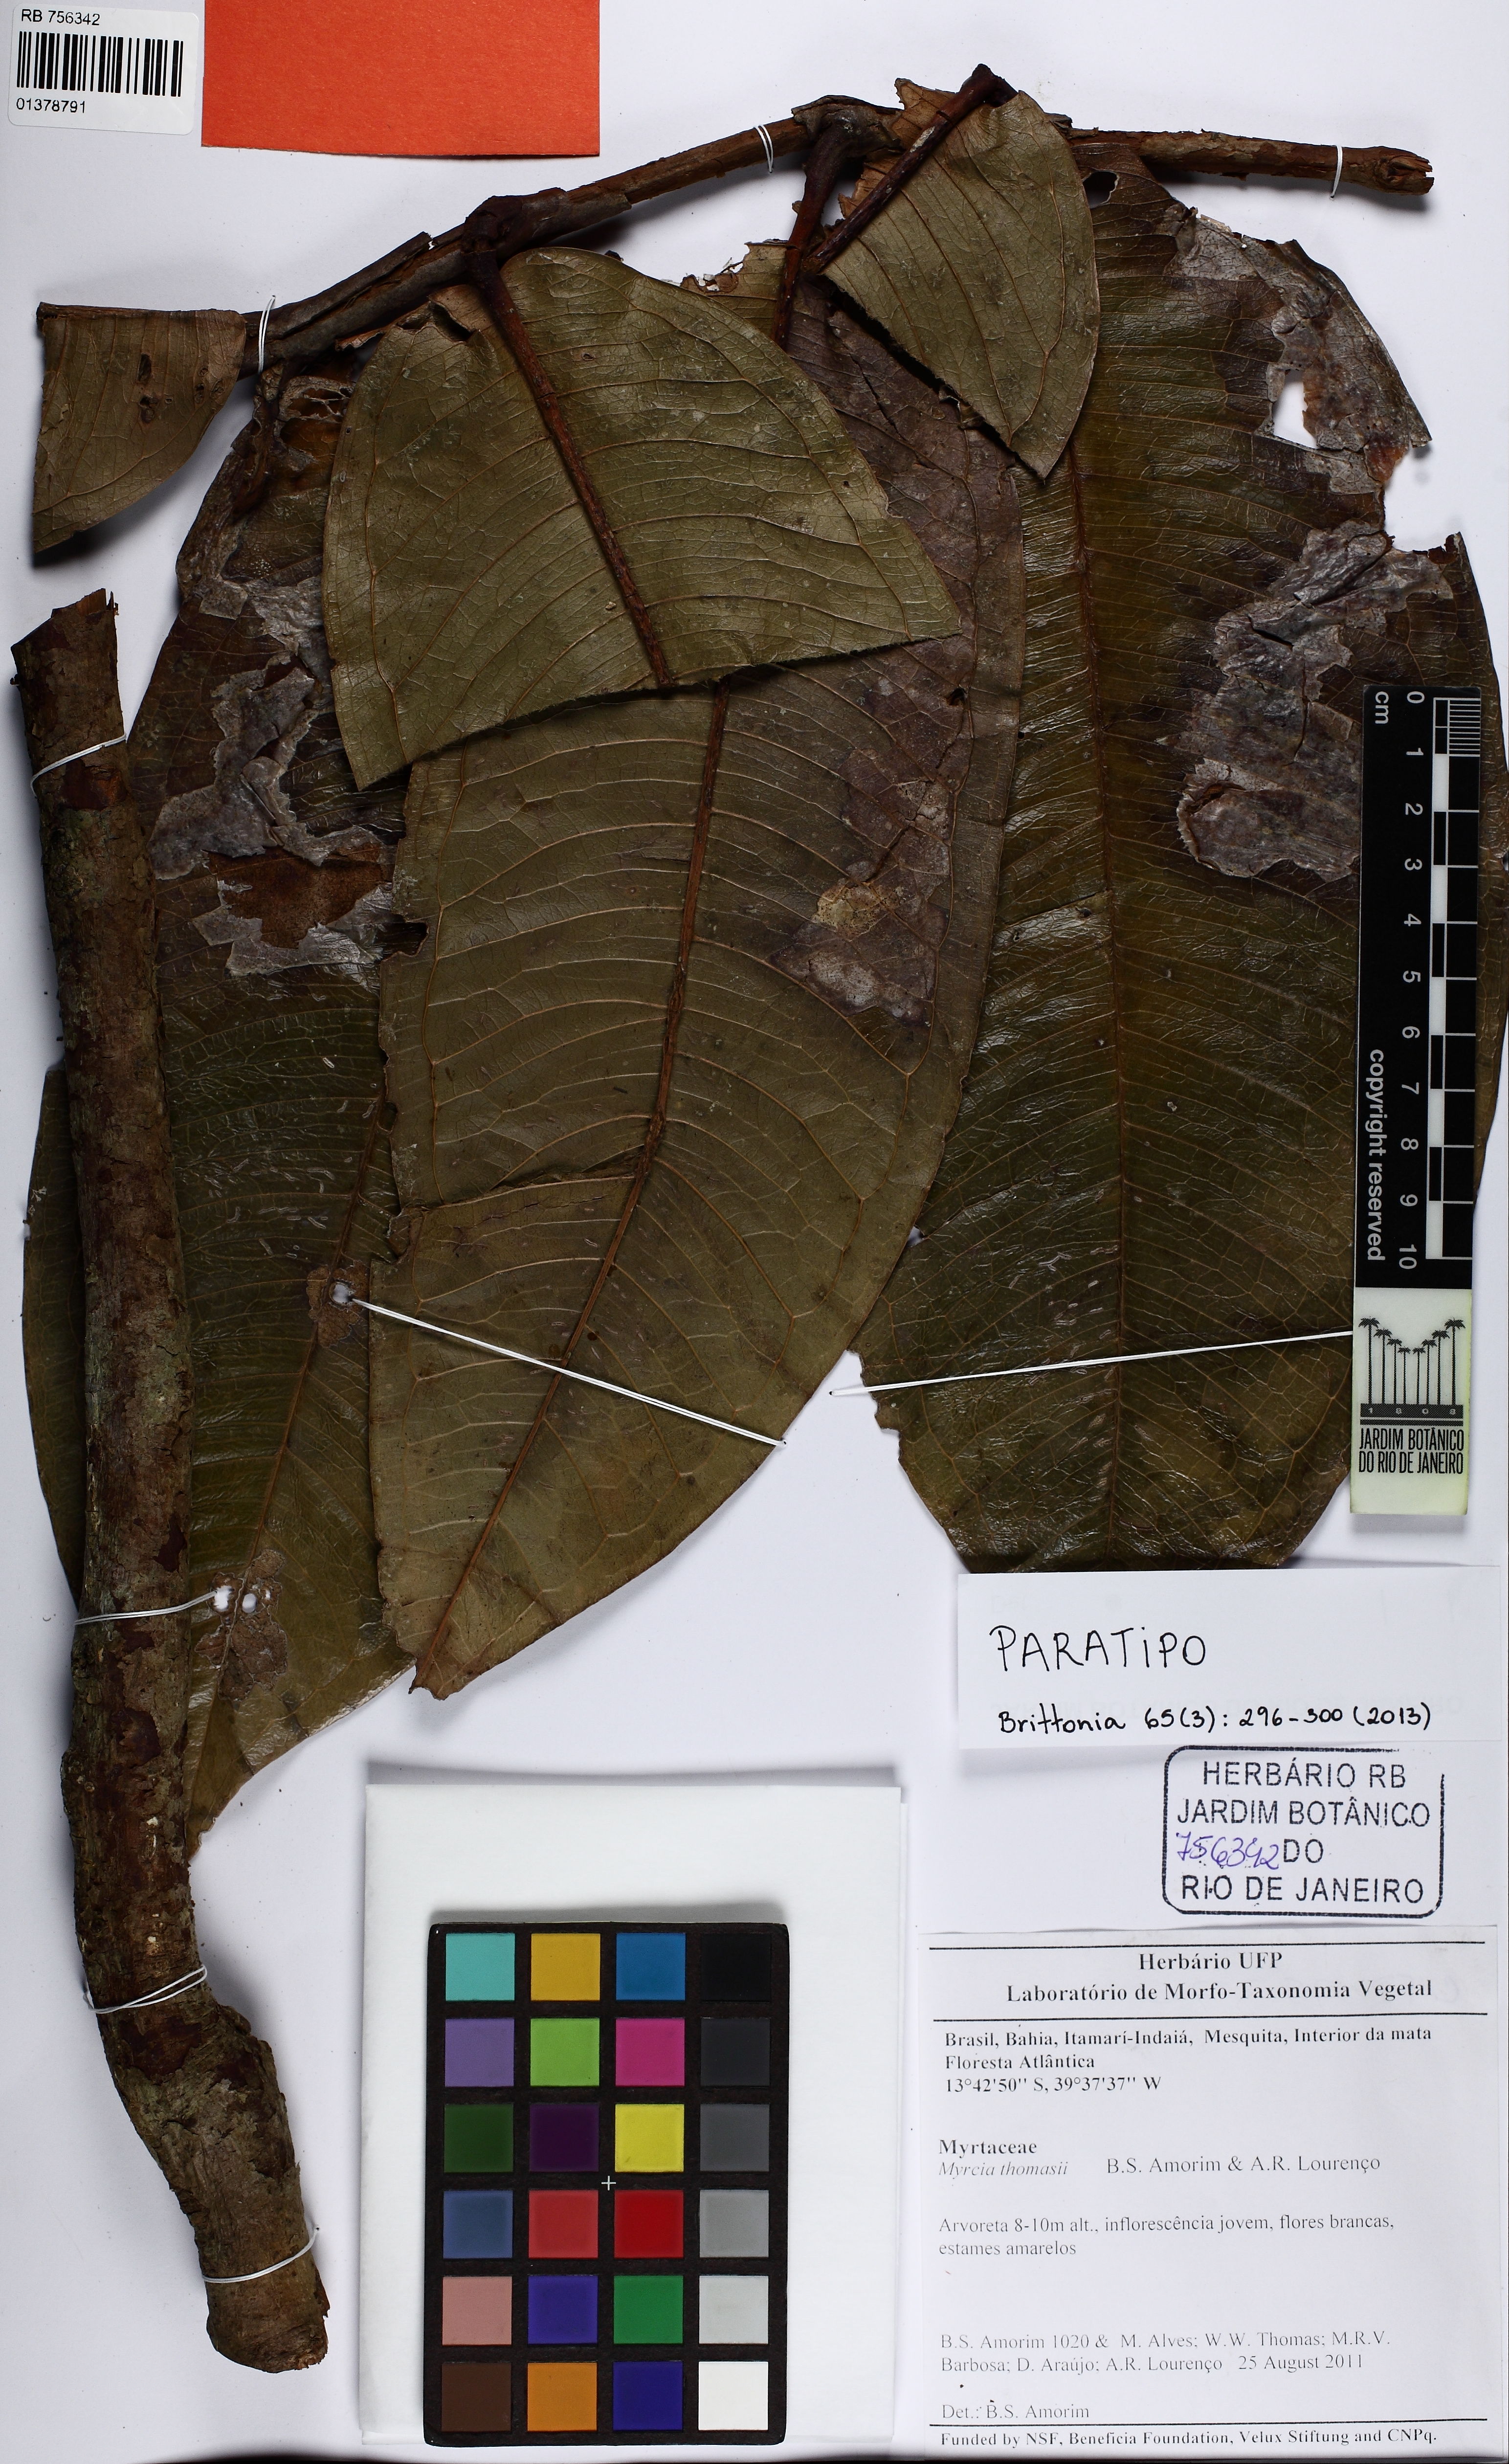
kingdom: Plantae
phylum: Tracheophyta
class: Magnoliopsida
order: Myrtales
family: Myrtaceae
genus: Myrcia
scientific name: Myrcia thomasii
